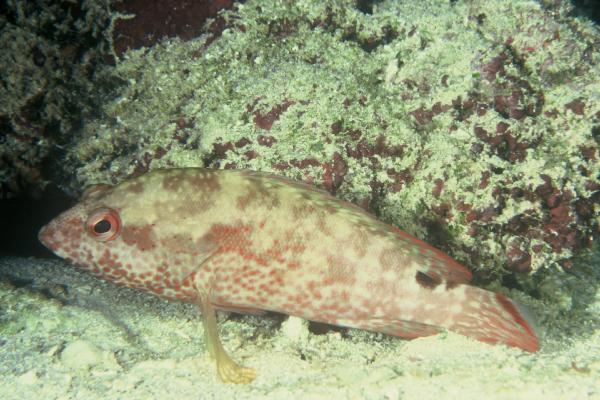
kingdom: Animalia
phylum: Chordata
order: Perciformes
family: Serranidae
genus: Cephalopholis
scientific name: Cephalopholis leopardus
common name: Leopard hind
